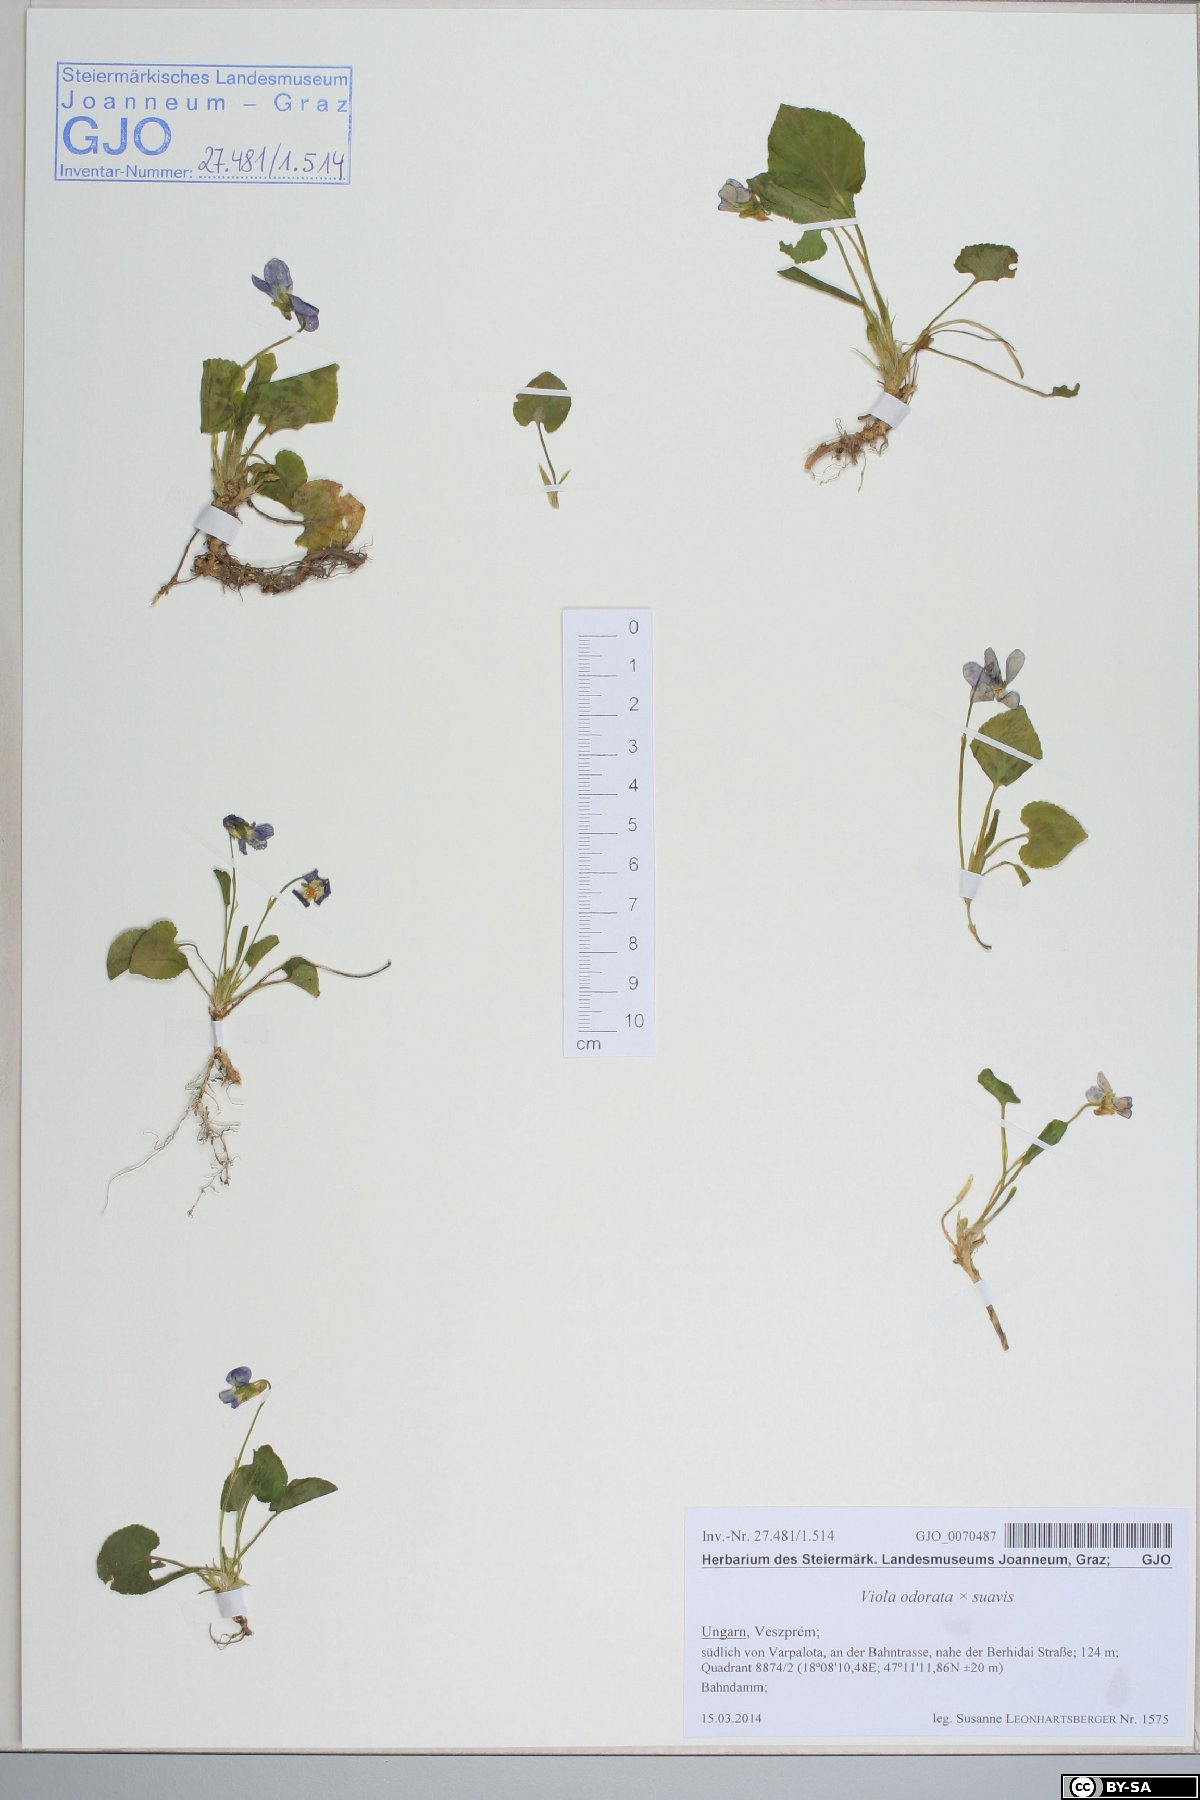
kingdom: Plantae
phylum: Tracheophyta
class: Magnoliopsida
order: Malpighiales
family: Violaceae
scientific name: Violaceae
